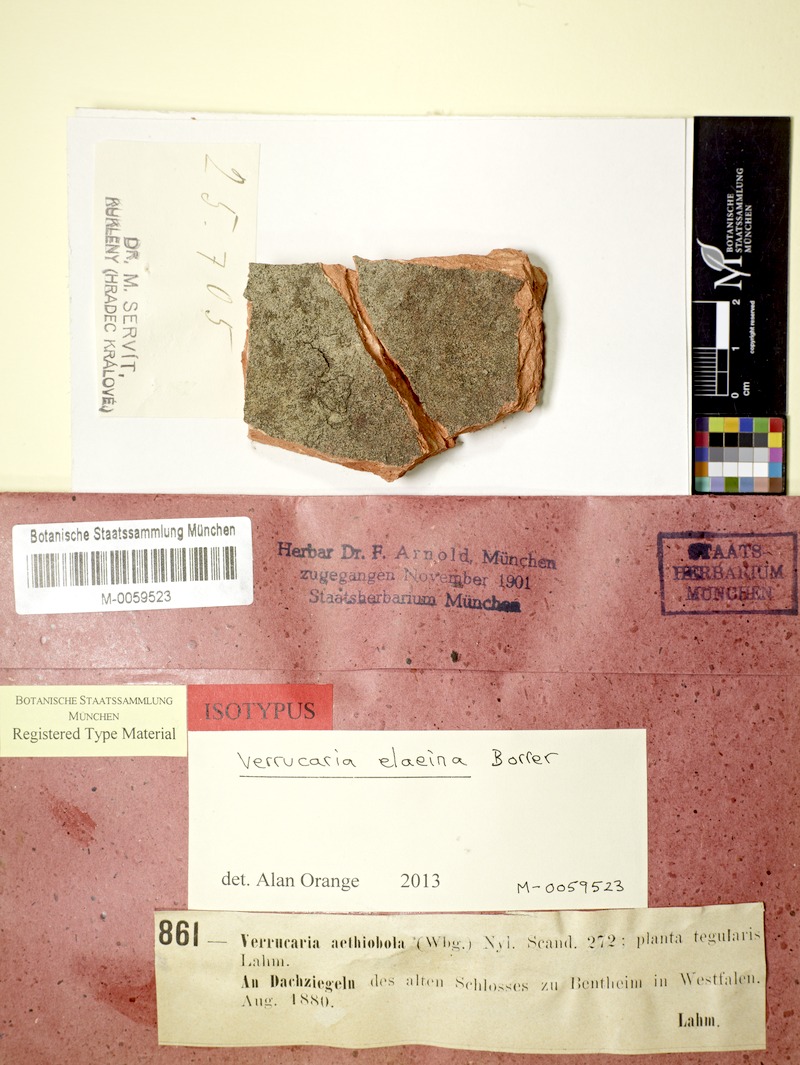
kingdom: Fungi
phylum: Ascomycota
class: Eurotiomycetes
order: Verrucariales
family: Verrucariaceae
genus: Verrucaria
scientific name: Verrucaria elaeina
